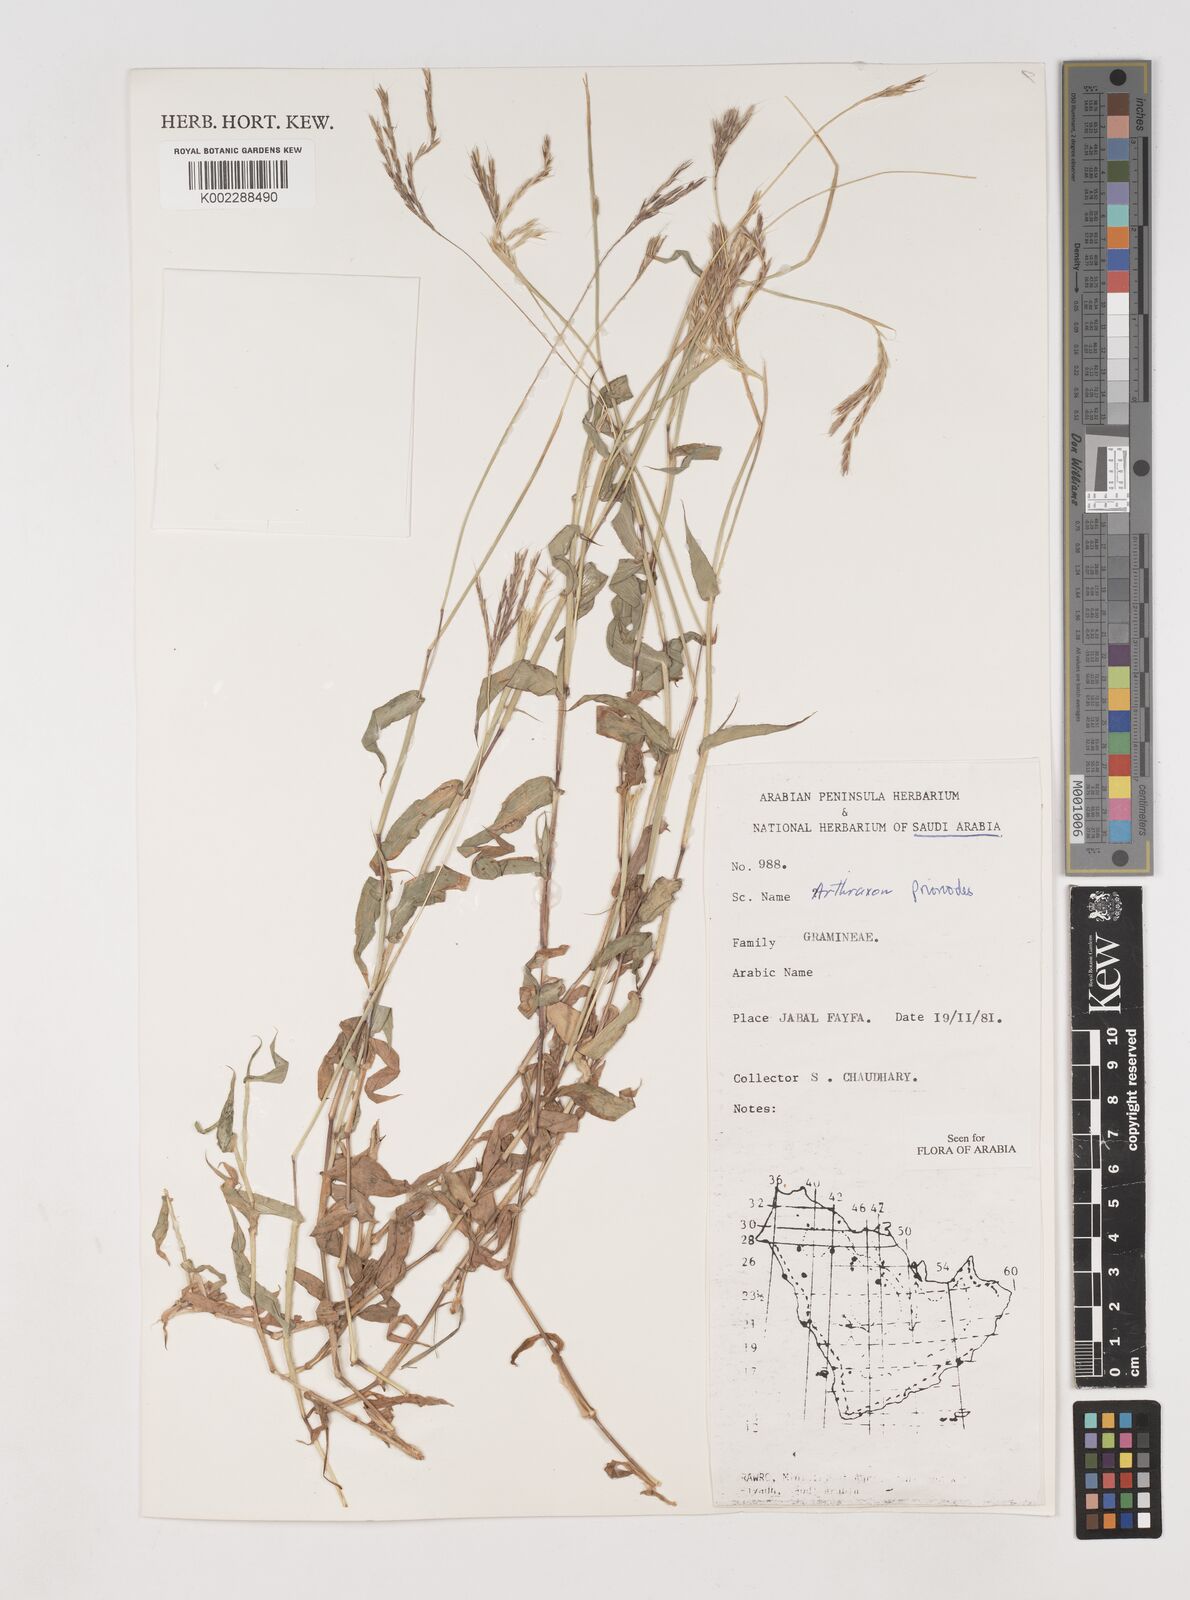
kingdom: Plantae
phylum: Tracheophyta
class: Liliopsida
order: Poales
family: Poaceae
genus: Arthraxon
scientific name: Arthraxon prionodes
